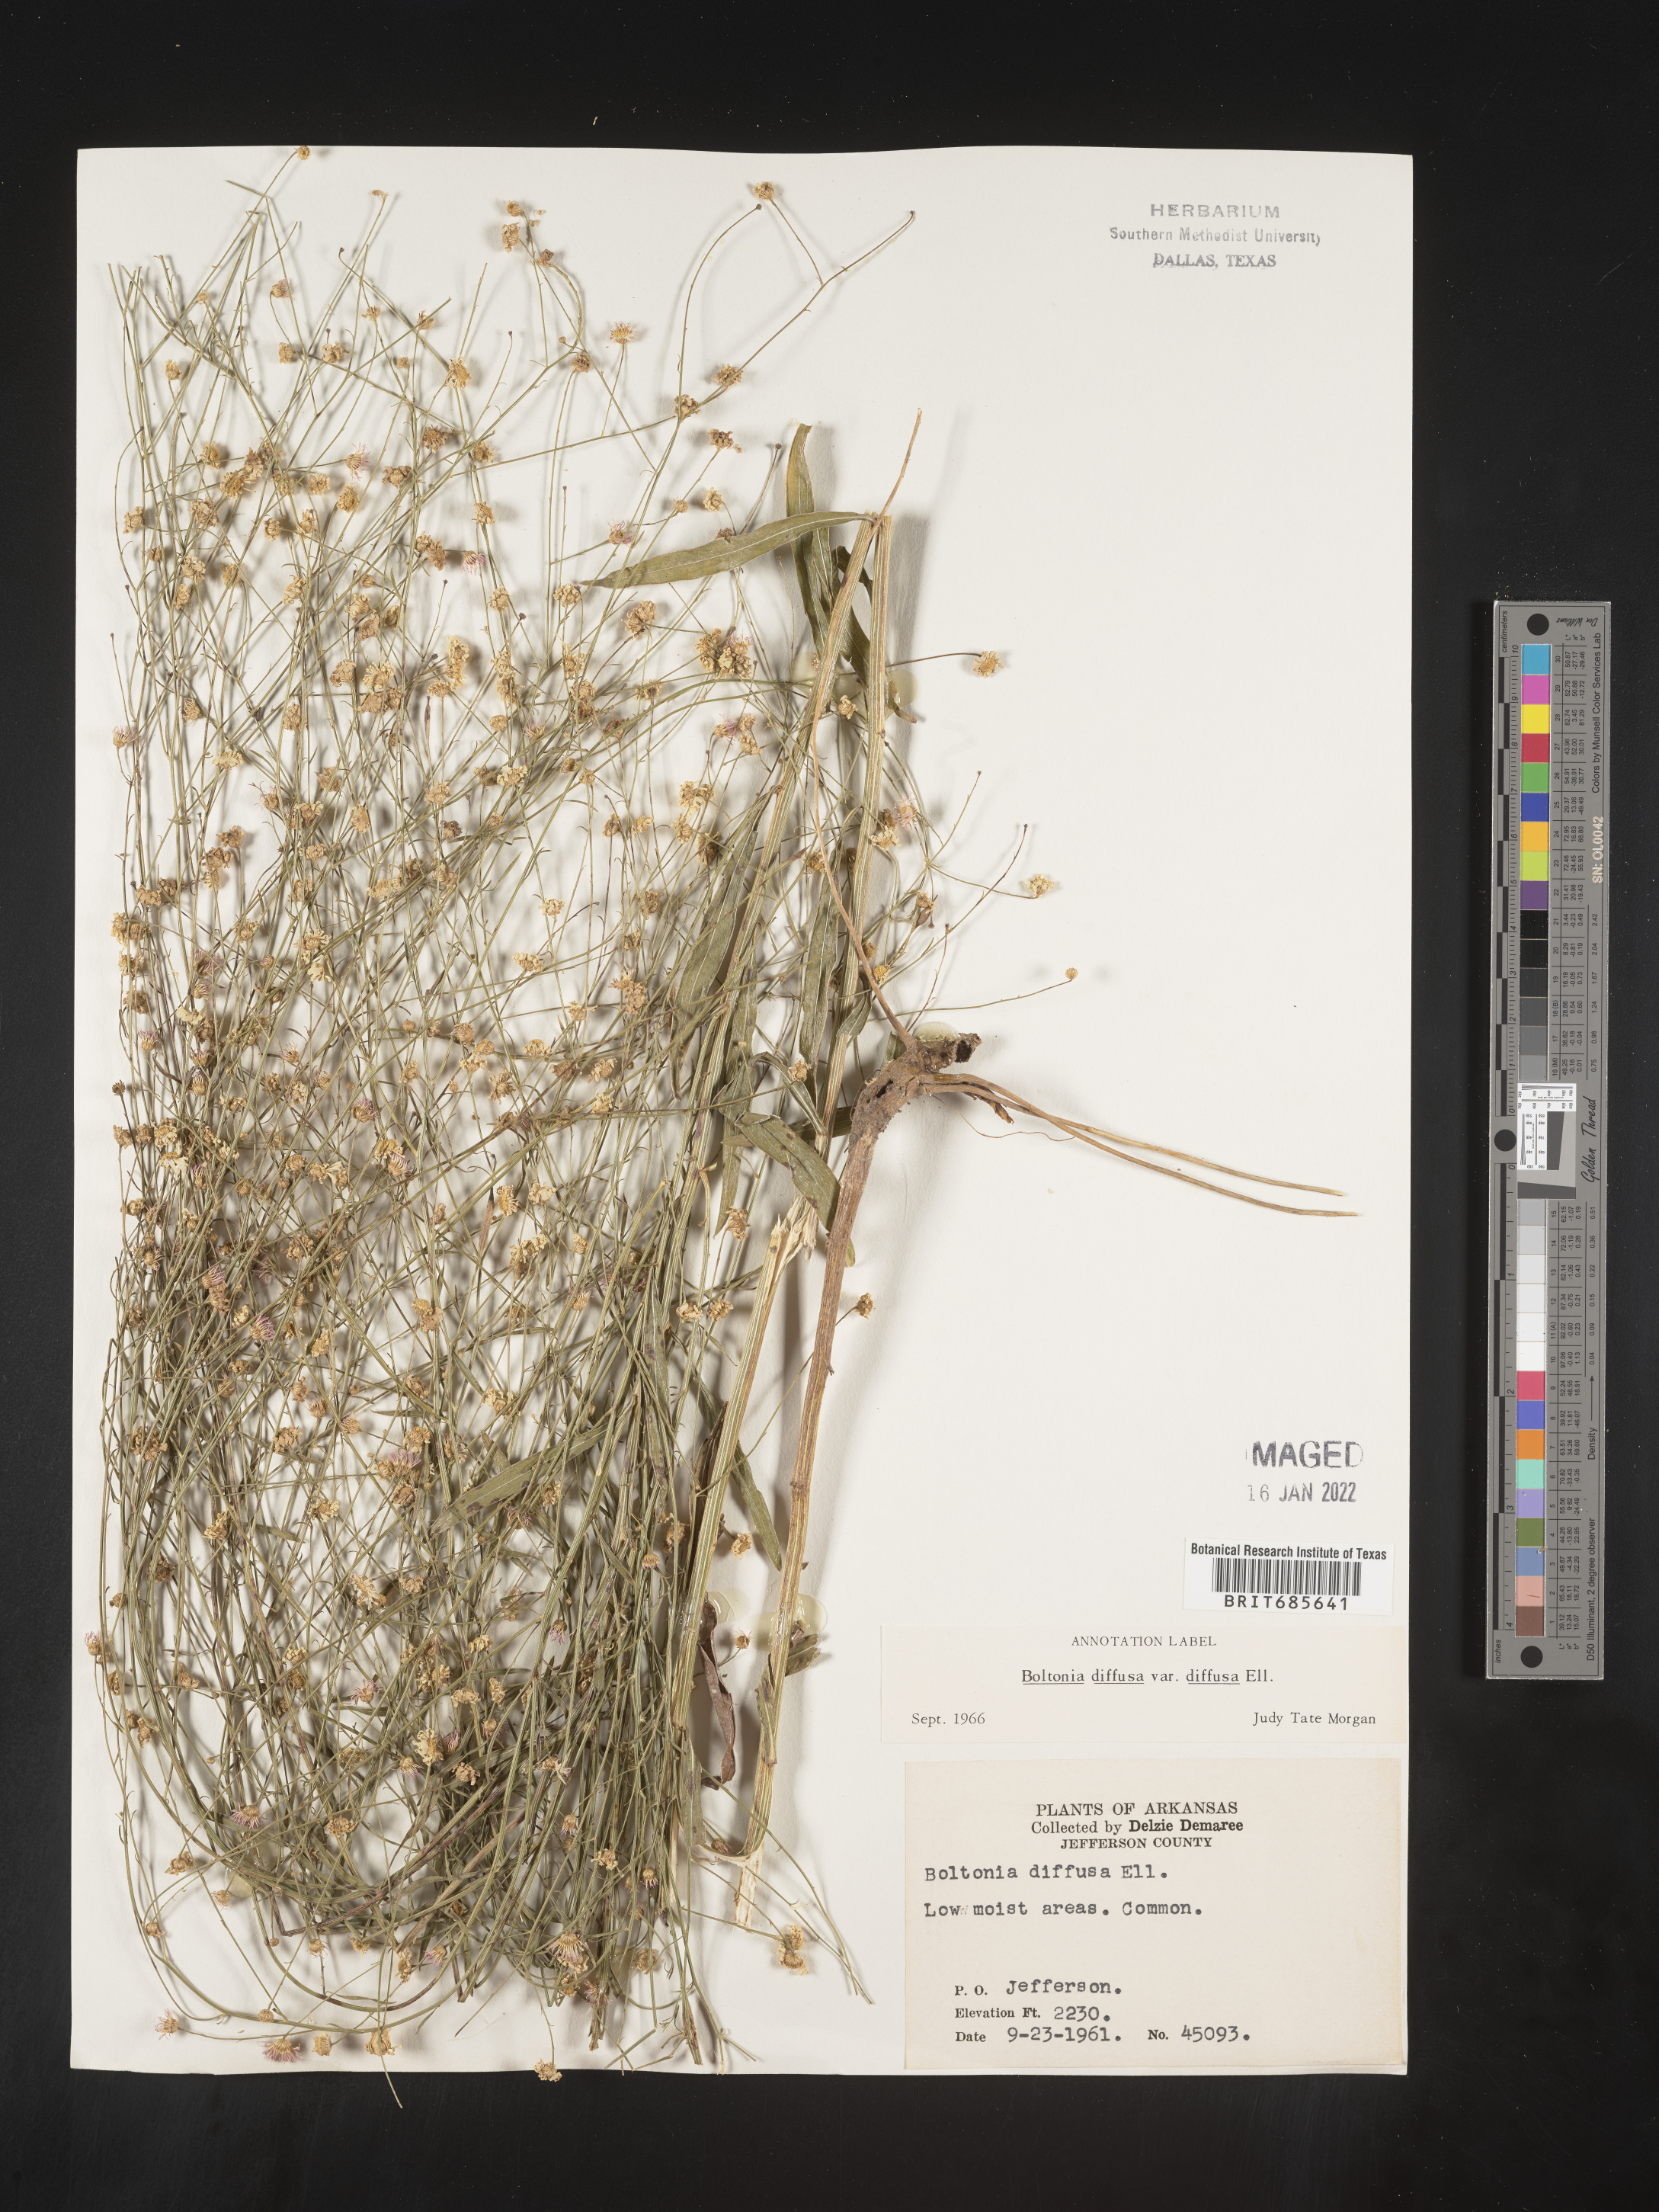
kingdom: Plantae
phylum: Tracheophyta
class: Magnoliopsida
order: Asterales
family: Asteraceae
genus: Boltonia
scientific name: Boltonia diffusa
